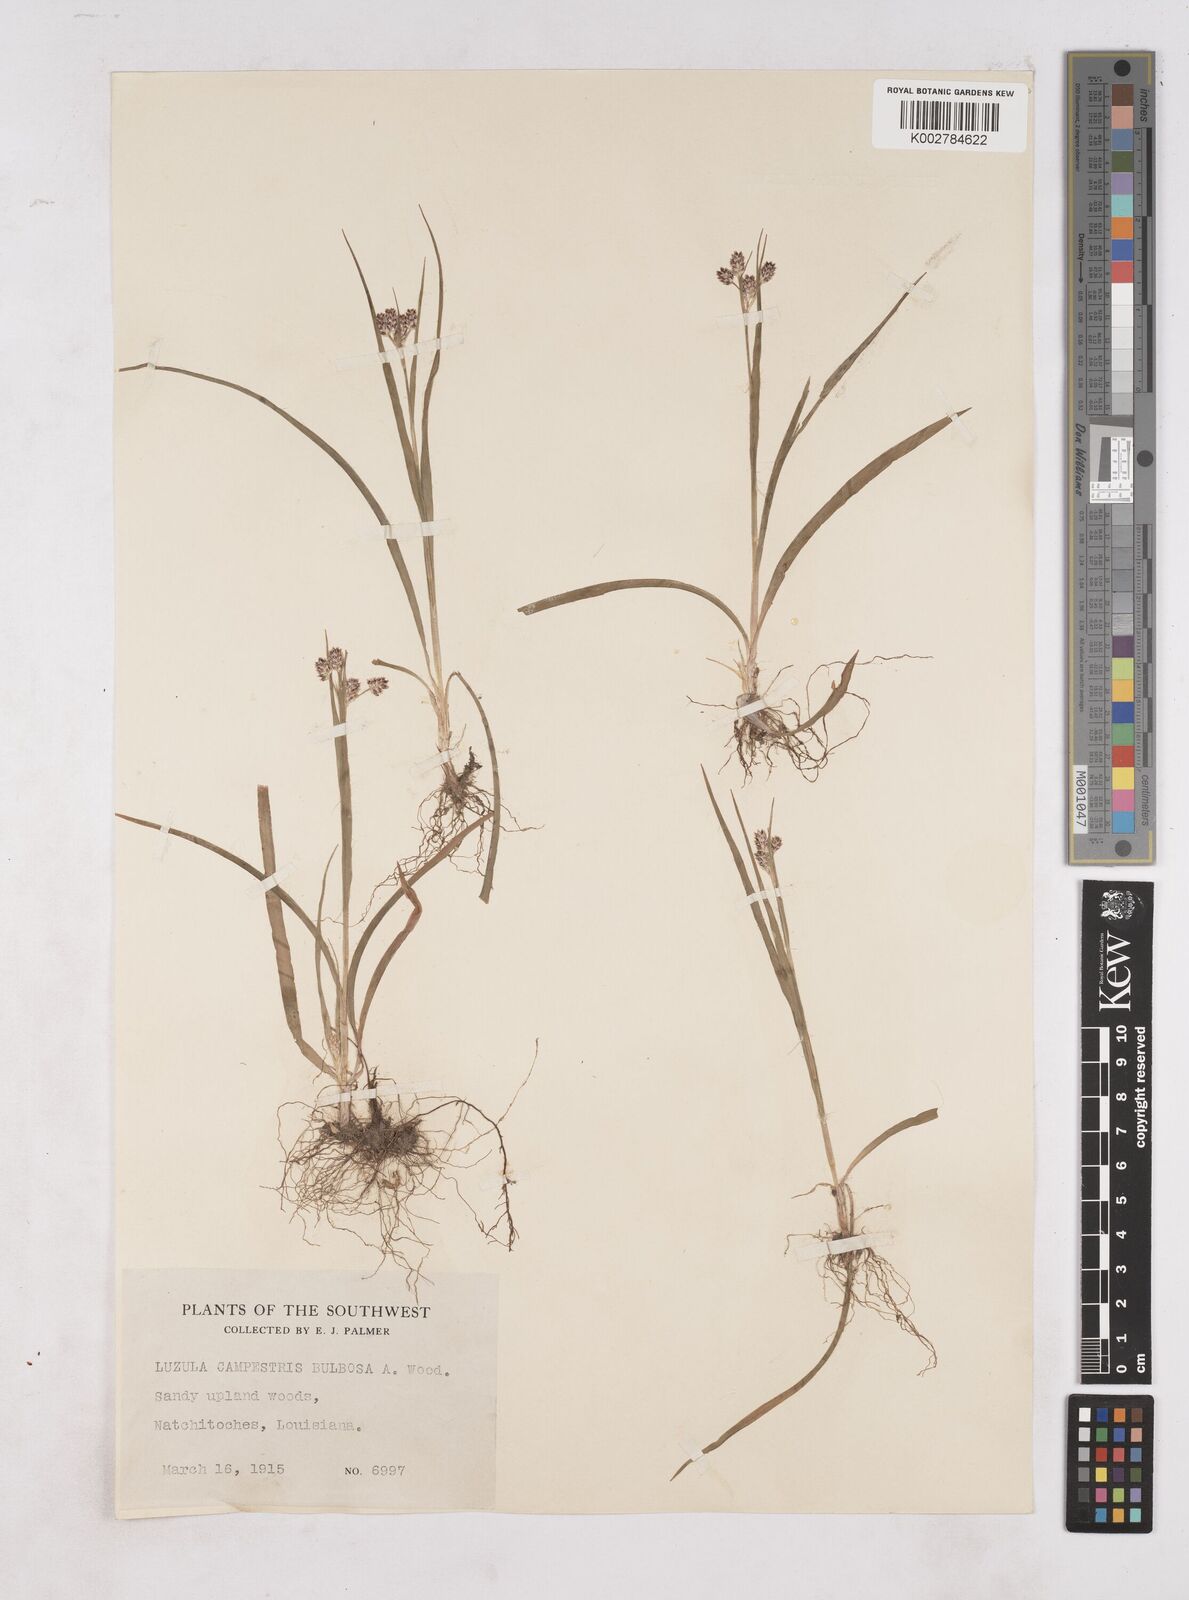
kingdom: Plantae
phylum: Tracheophyta
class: Liliopsida
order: Poales
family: Juncaceae
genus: Luzula
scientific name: Luzula bulbosa
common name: Bulbous woodrush
